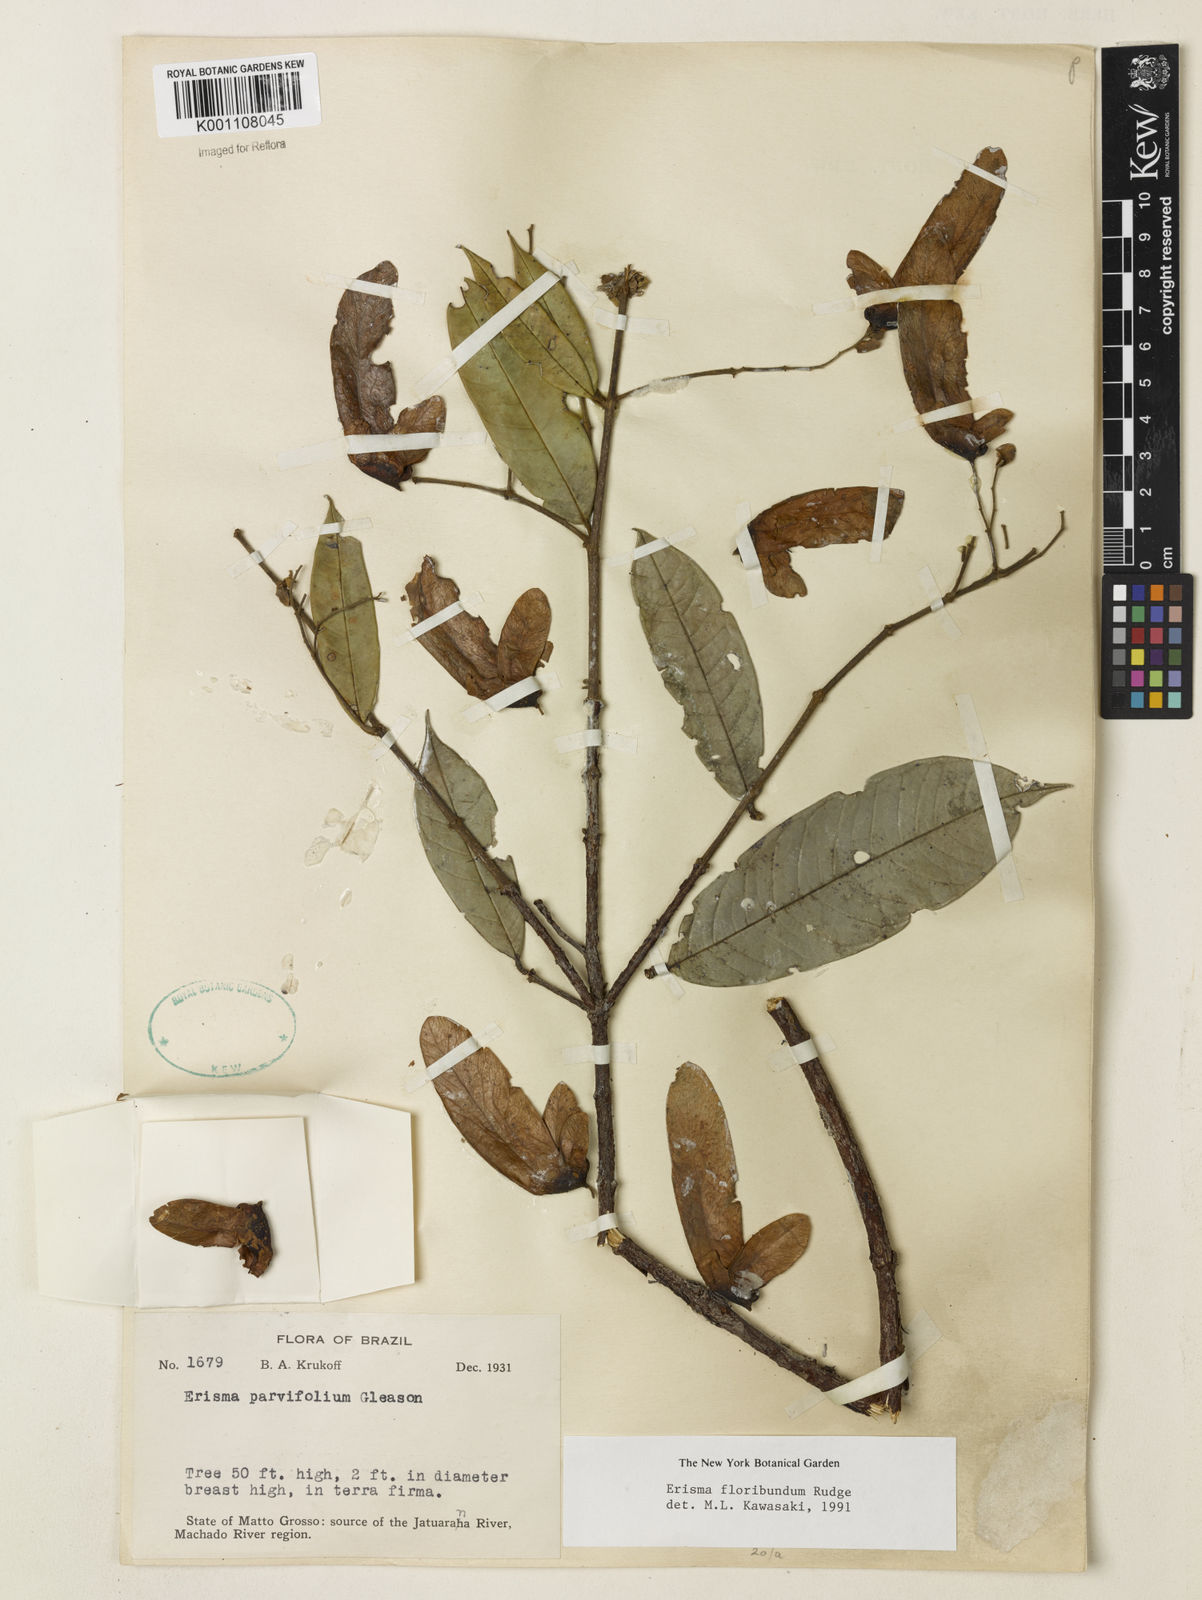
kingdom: Plantae
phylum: Tracheophyta
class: Magnoliopsida
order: Myrtales
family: Vochysiaceae
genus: Erisma
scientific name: Erisma
